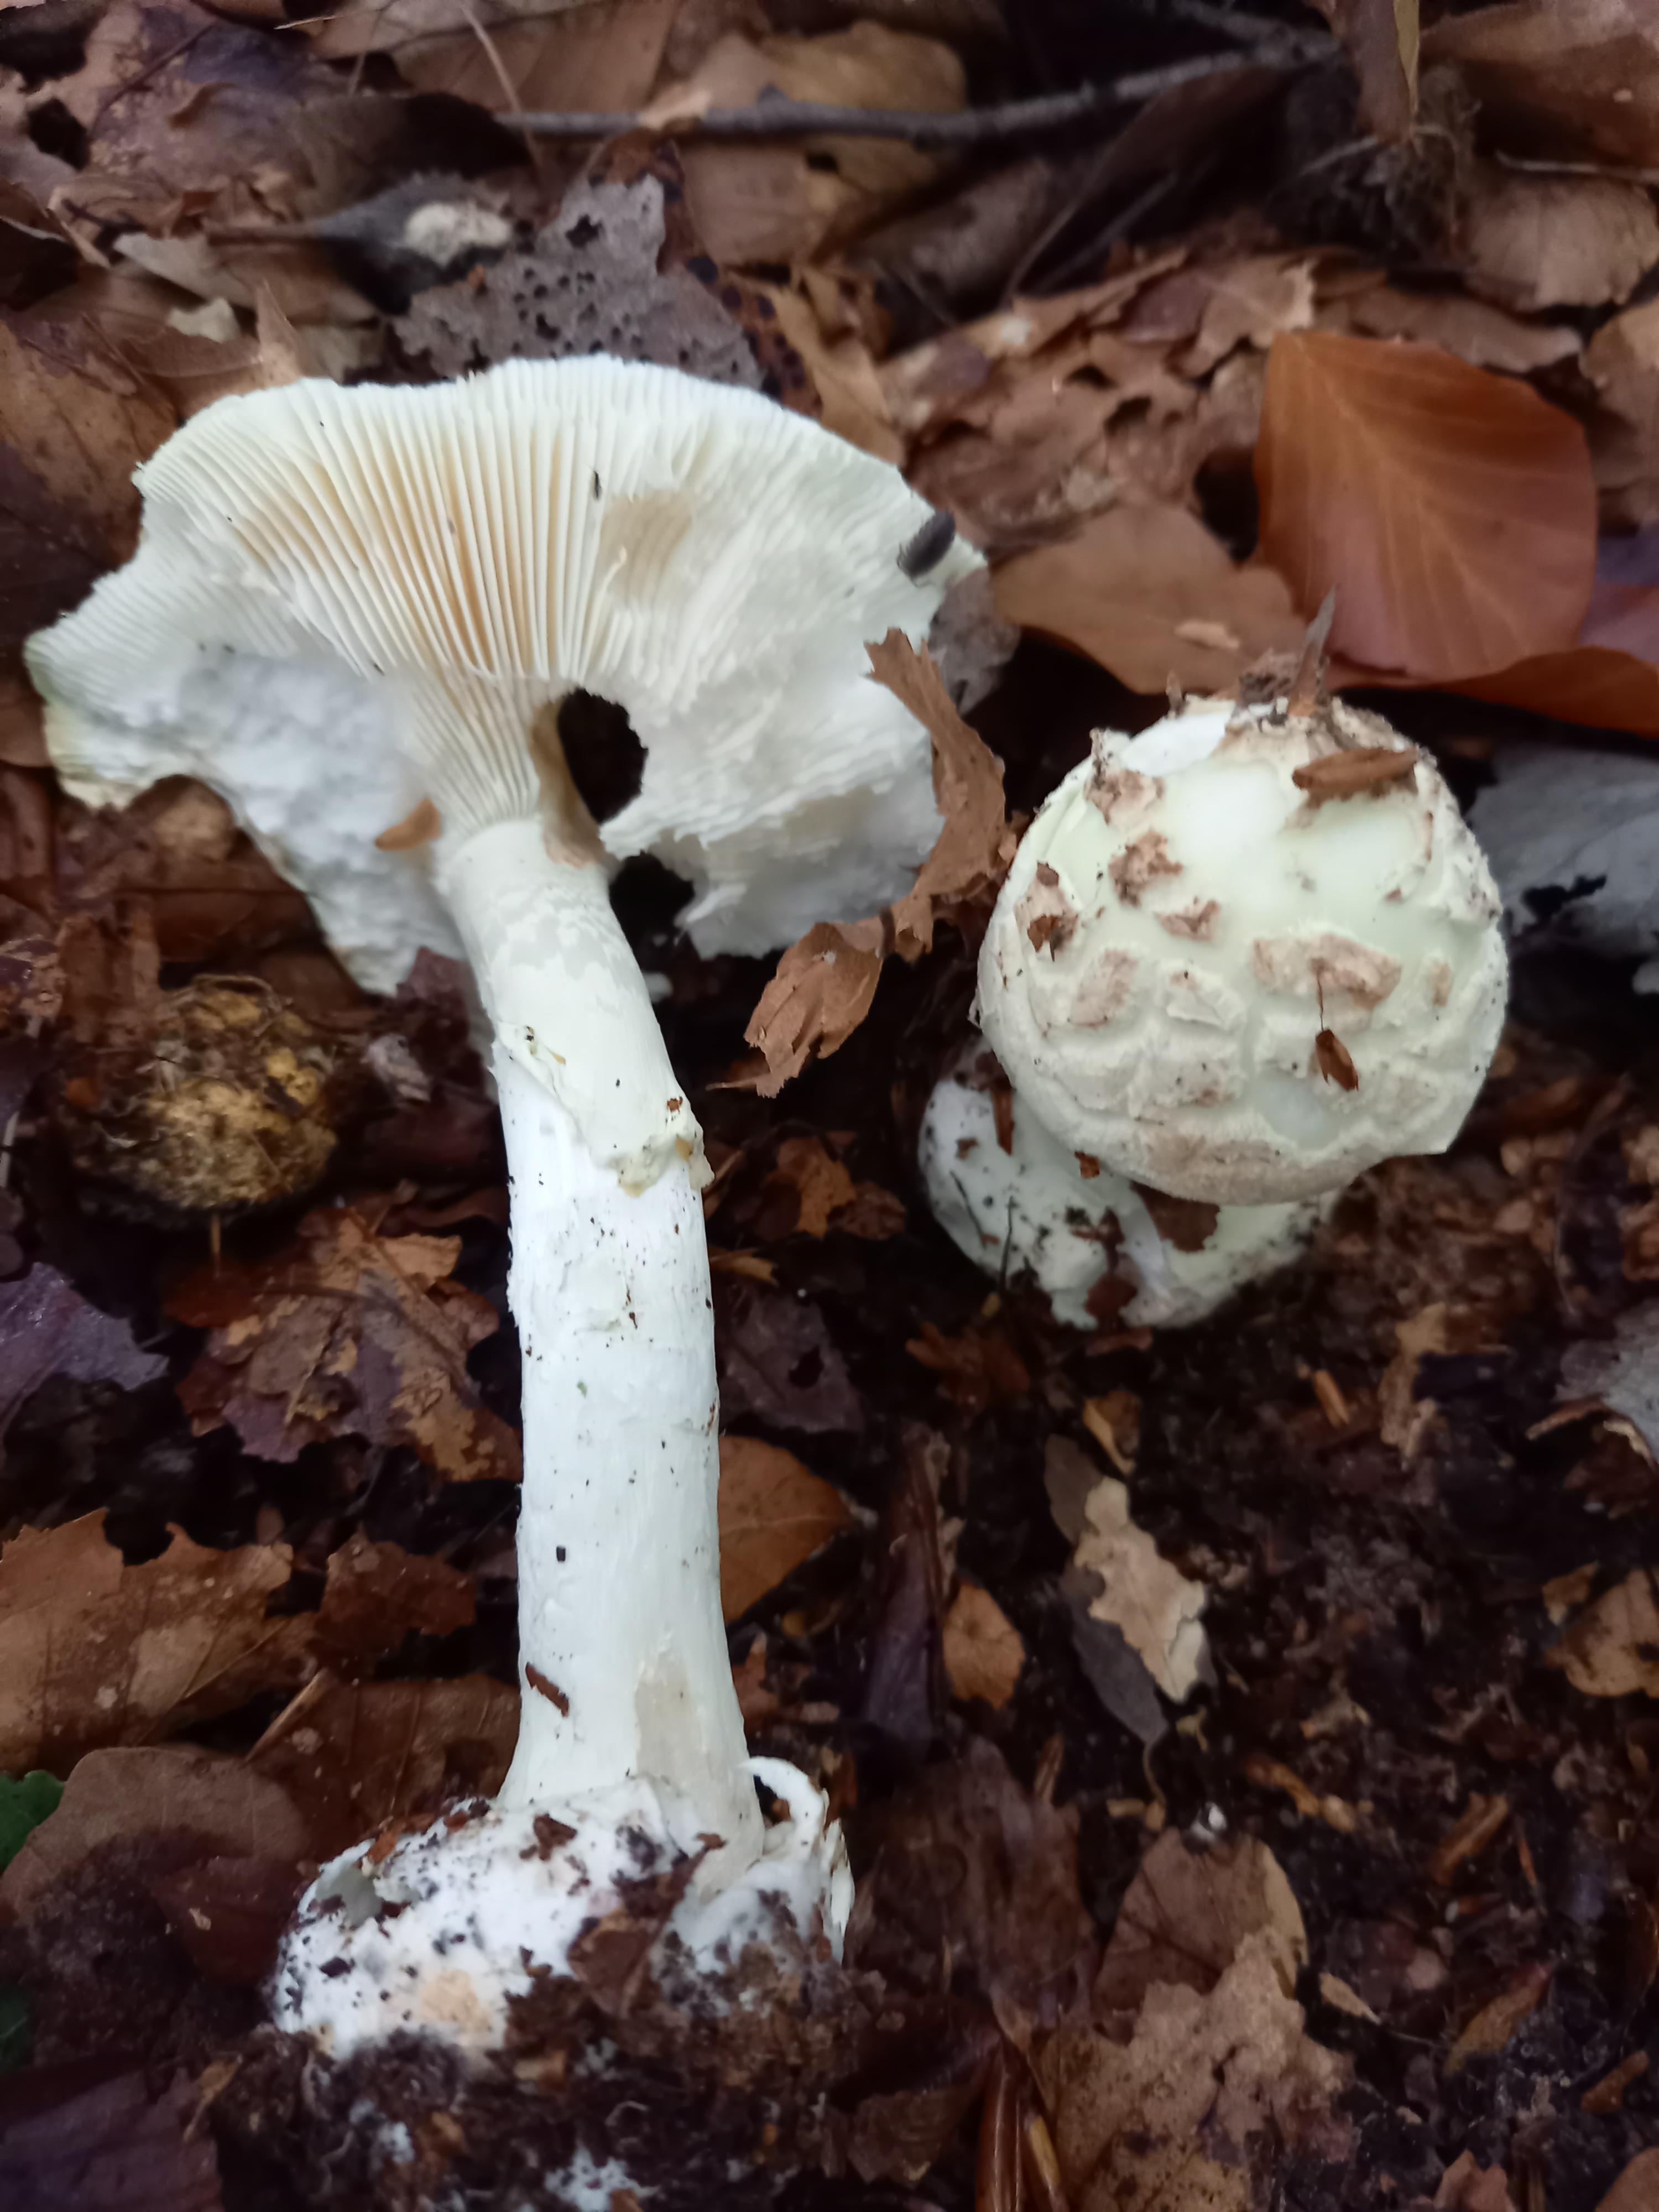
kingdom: Fungi
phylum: Basidiomycota
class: Agaricomycetes
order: Agaricales
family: Amanitaceae
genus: Amanita
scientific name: Amanita citrina
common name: kugleknoldet fluesvamp
